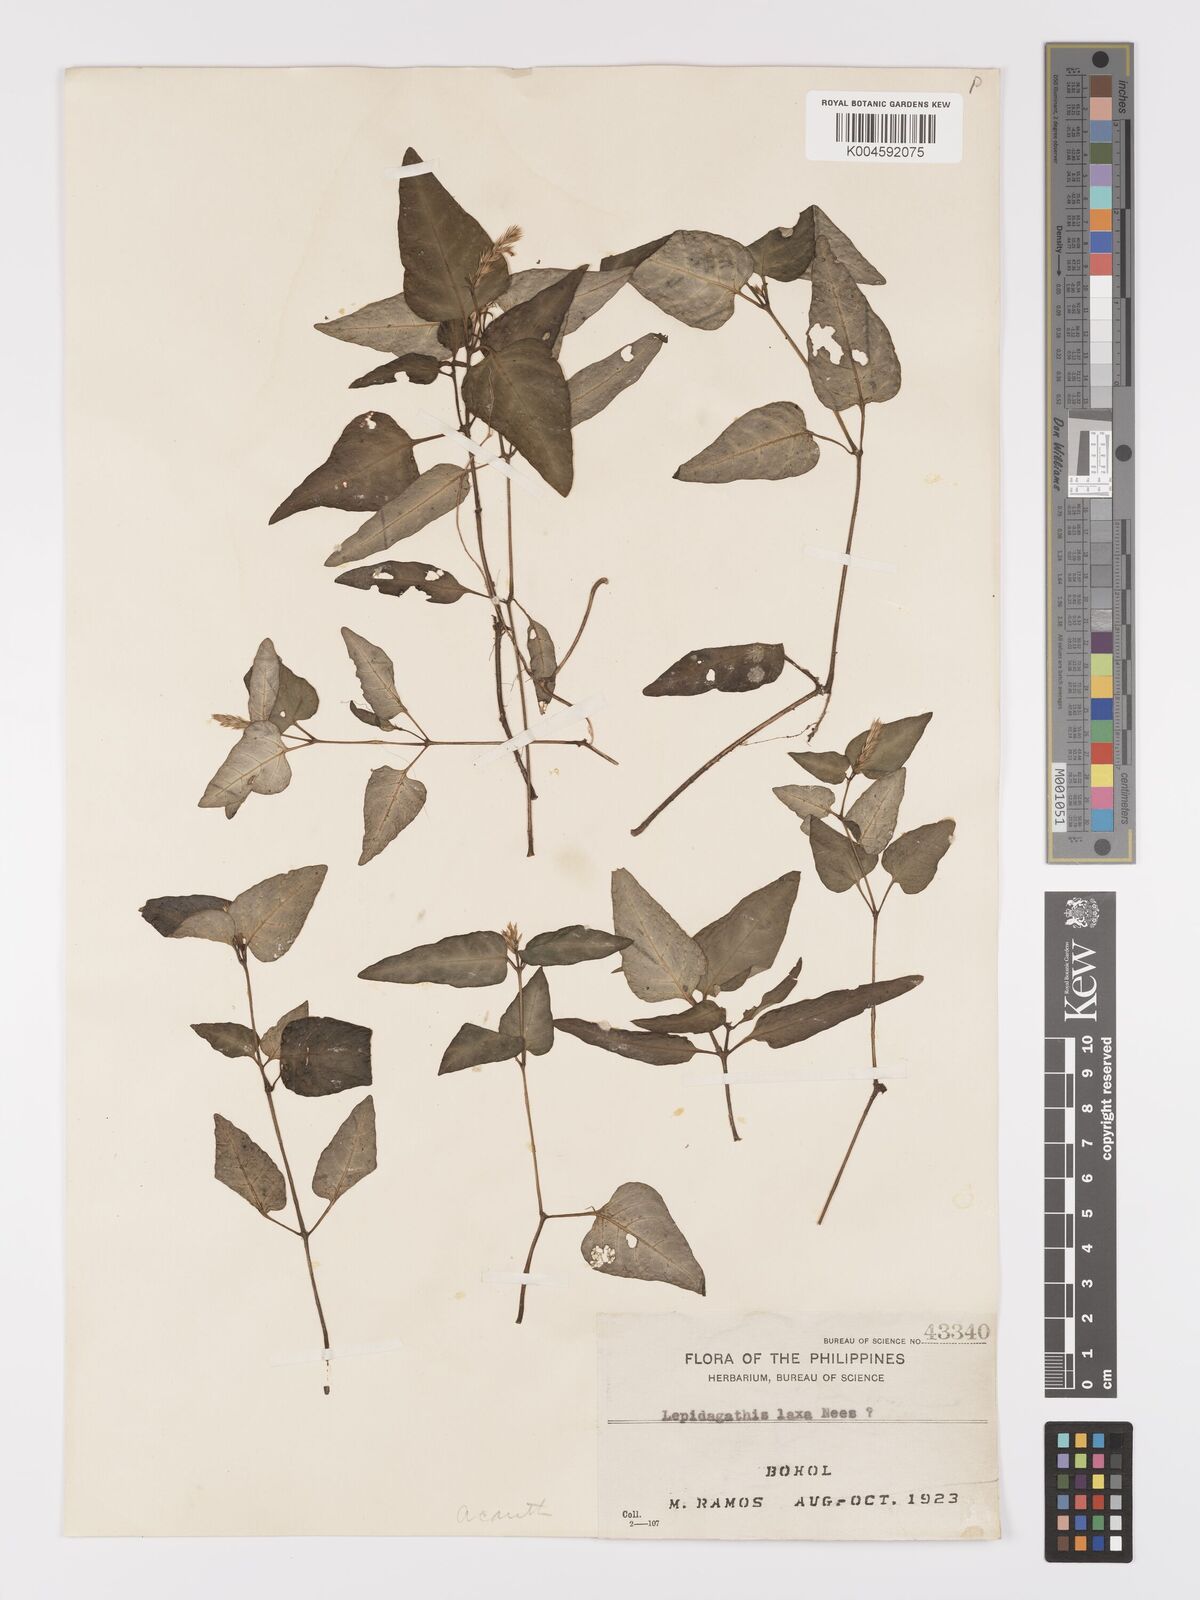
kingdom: Plantae
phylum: Tracheophyta
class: Magnoliopsida
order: Lamiales
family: Acanthaceae
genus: Lepidagathis
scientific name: Lepidagathis laxa
